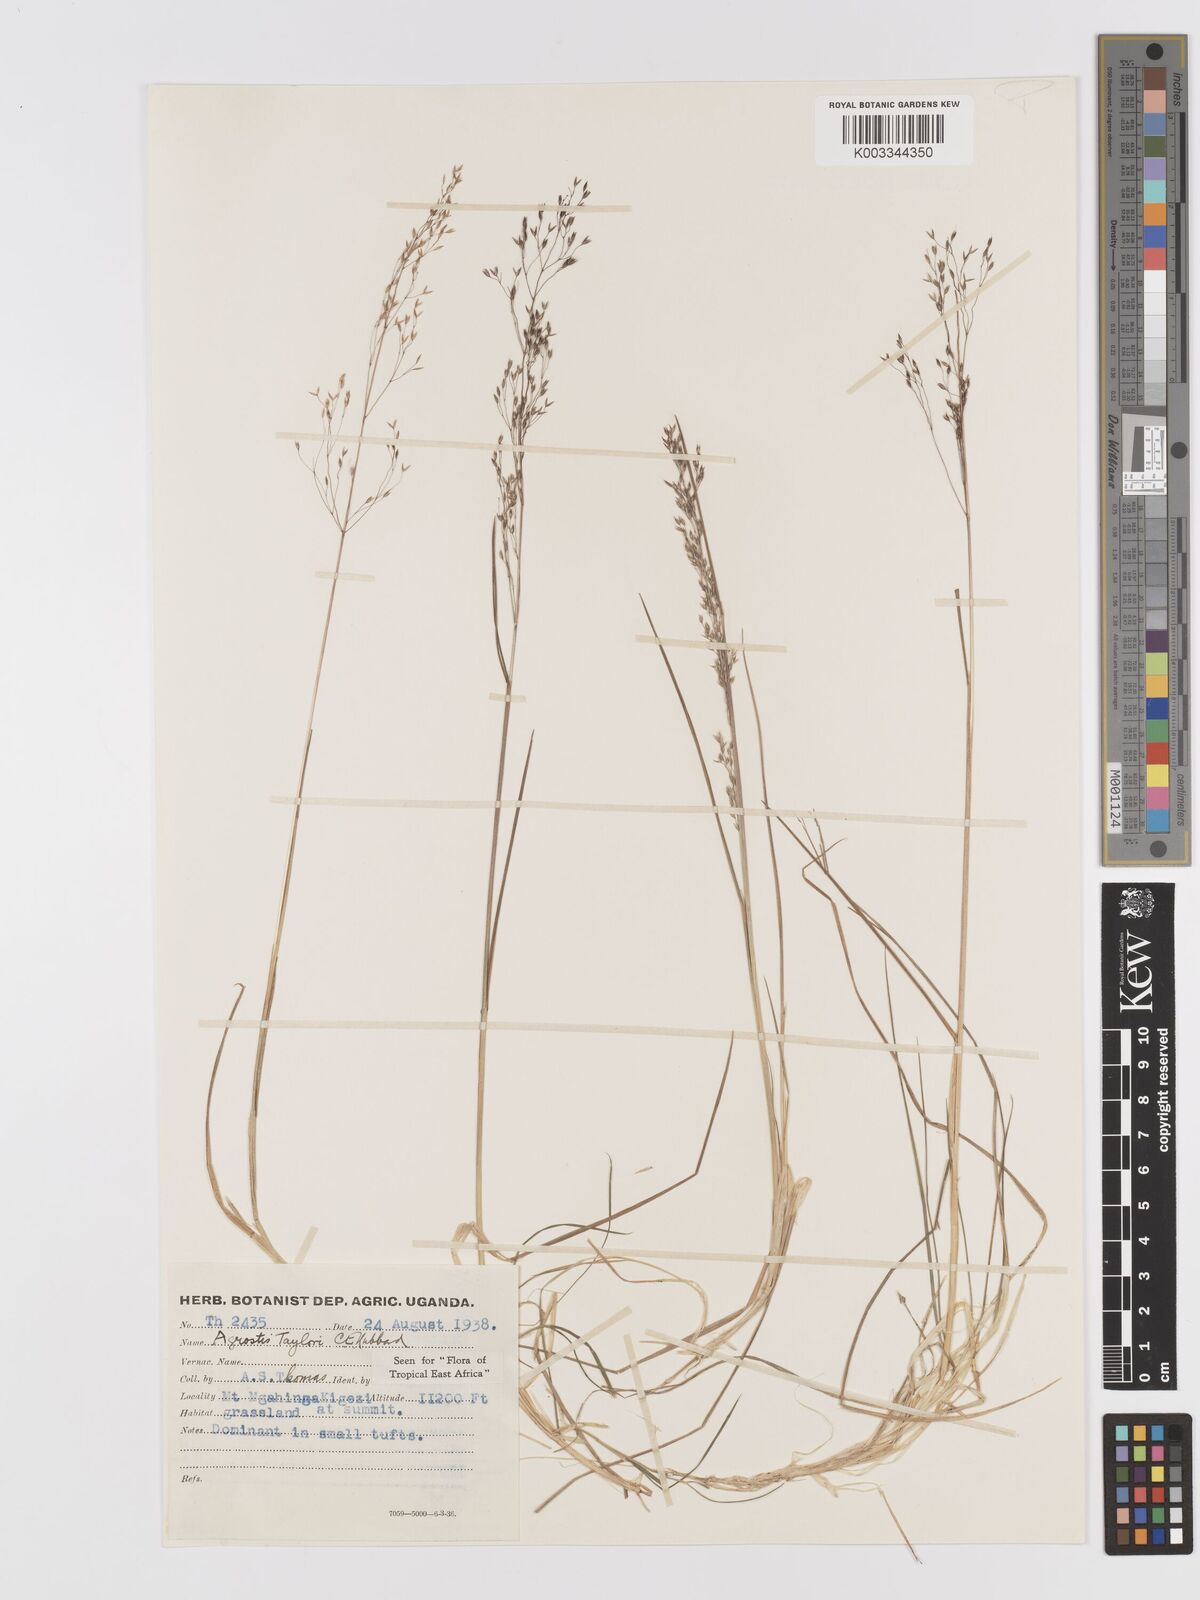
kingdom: Plantae
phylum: Tracheophyta
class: Liliopsida
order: Poales
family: Poaceae
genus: Agrostis
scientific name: Agrostis taylorii
